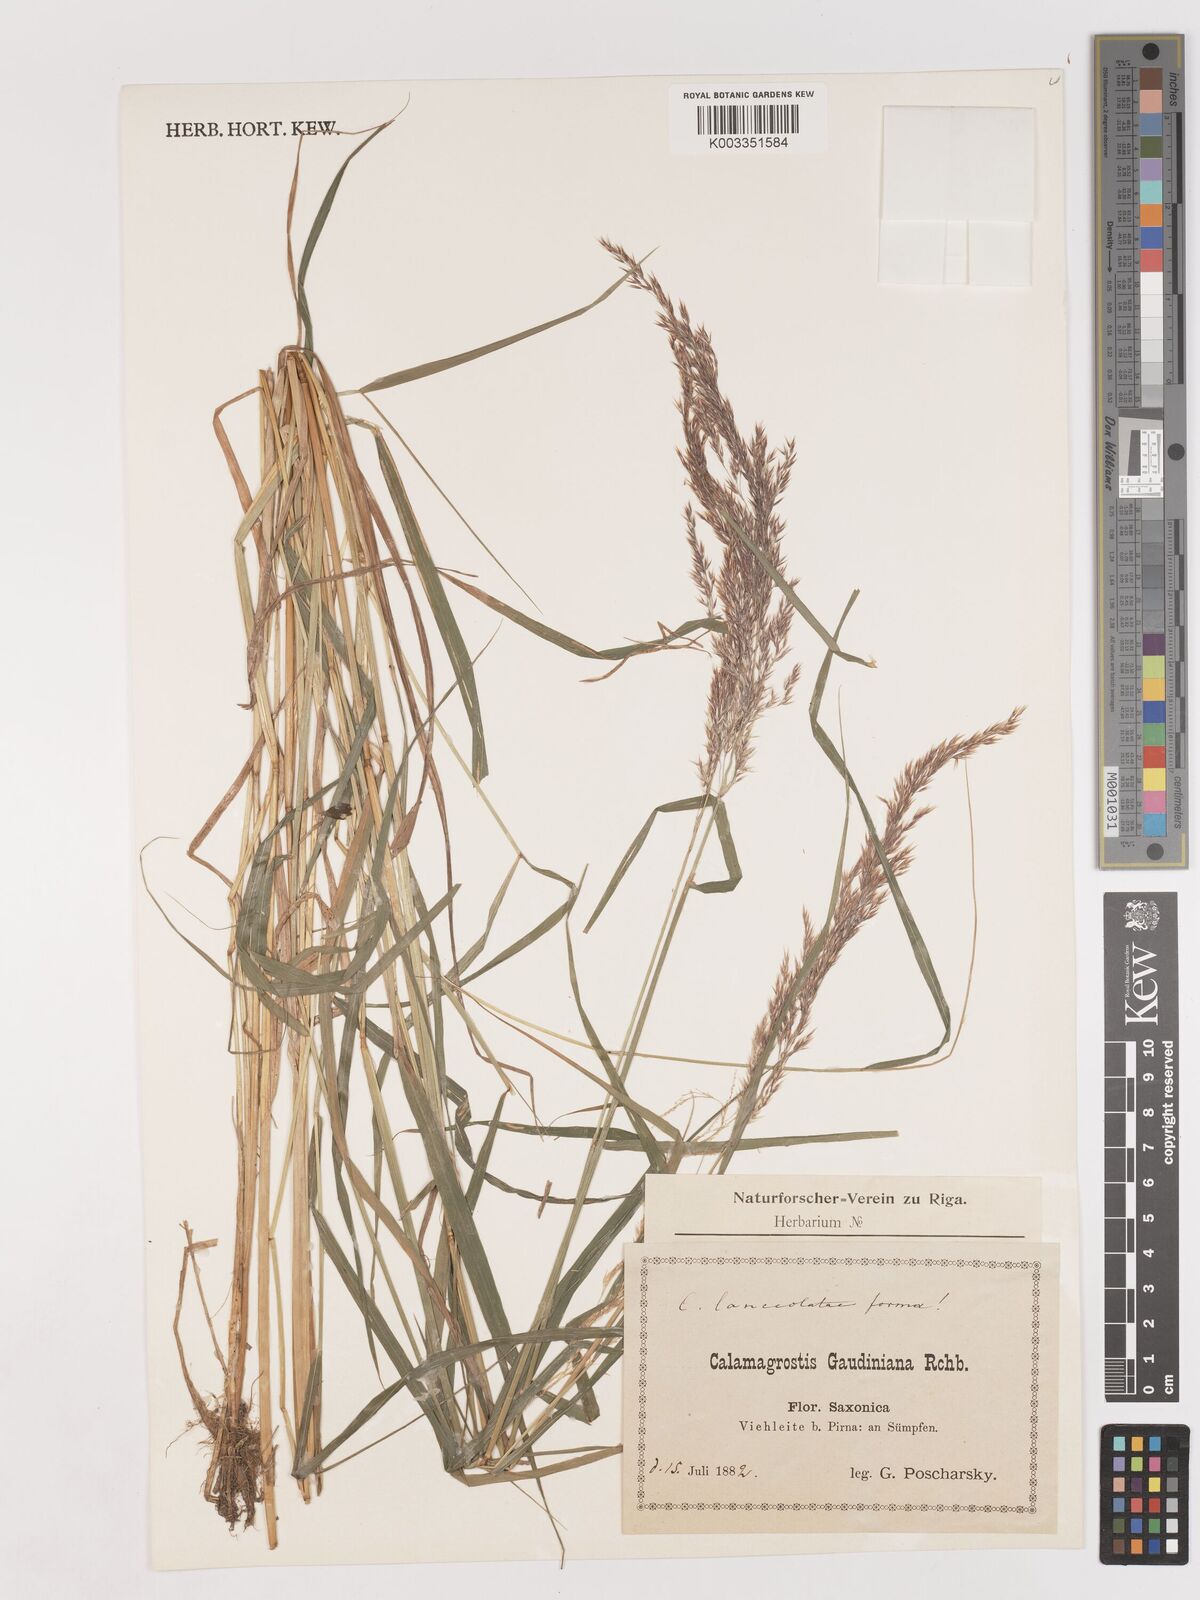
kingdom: Plantae
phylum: Tracheophyta
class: Liliopsida
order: Poales
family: Poaceae
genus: Calamagrostis
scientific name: Calamagrostis canescens
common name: Purple small-reed
